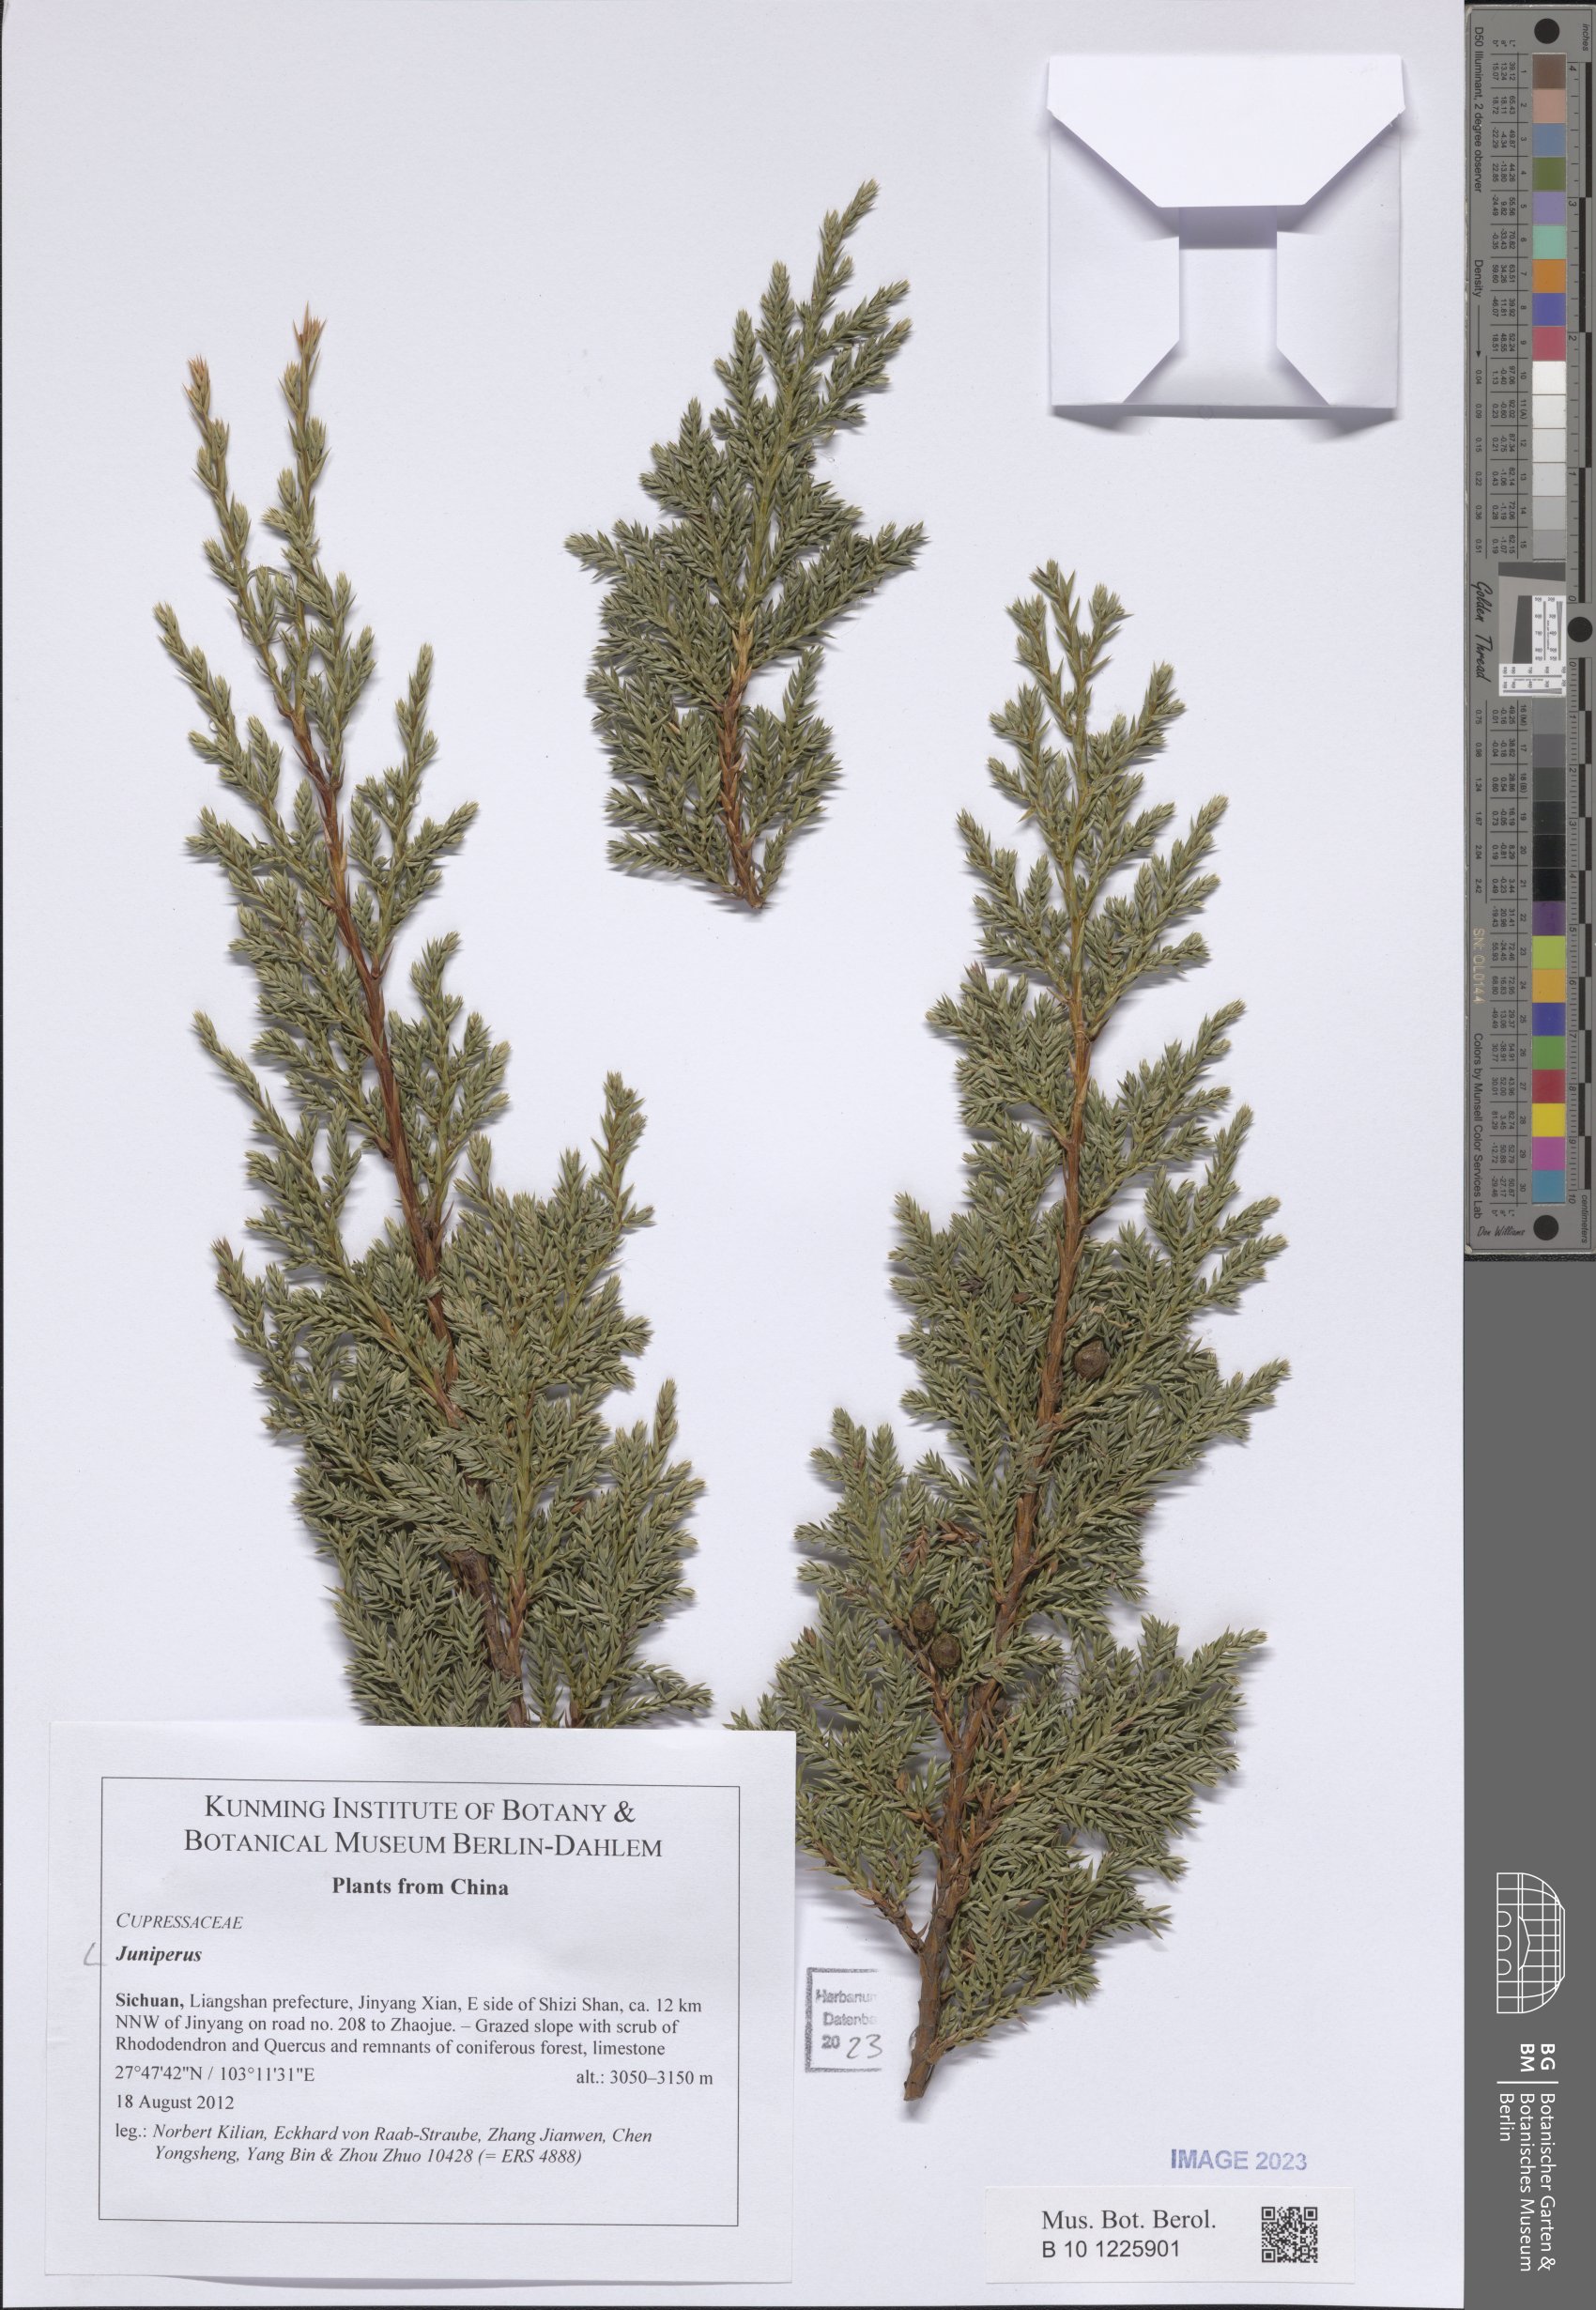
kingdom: Plantae
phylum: Tracheophyta
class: Pinopsida
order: Pinales
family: Cupressaceae
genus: Juniperus
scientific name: Juniperus
